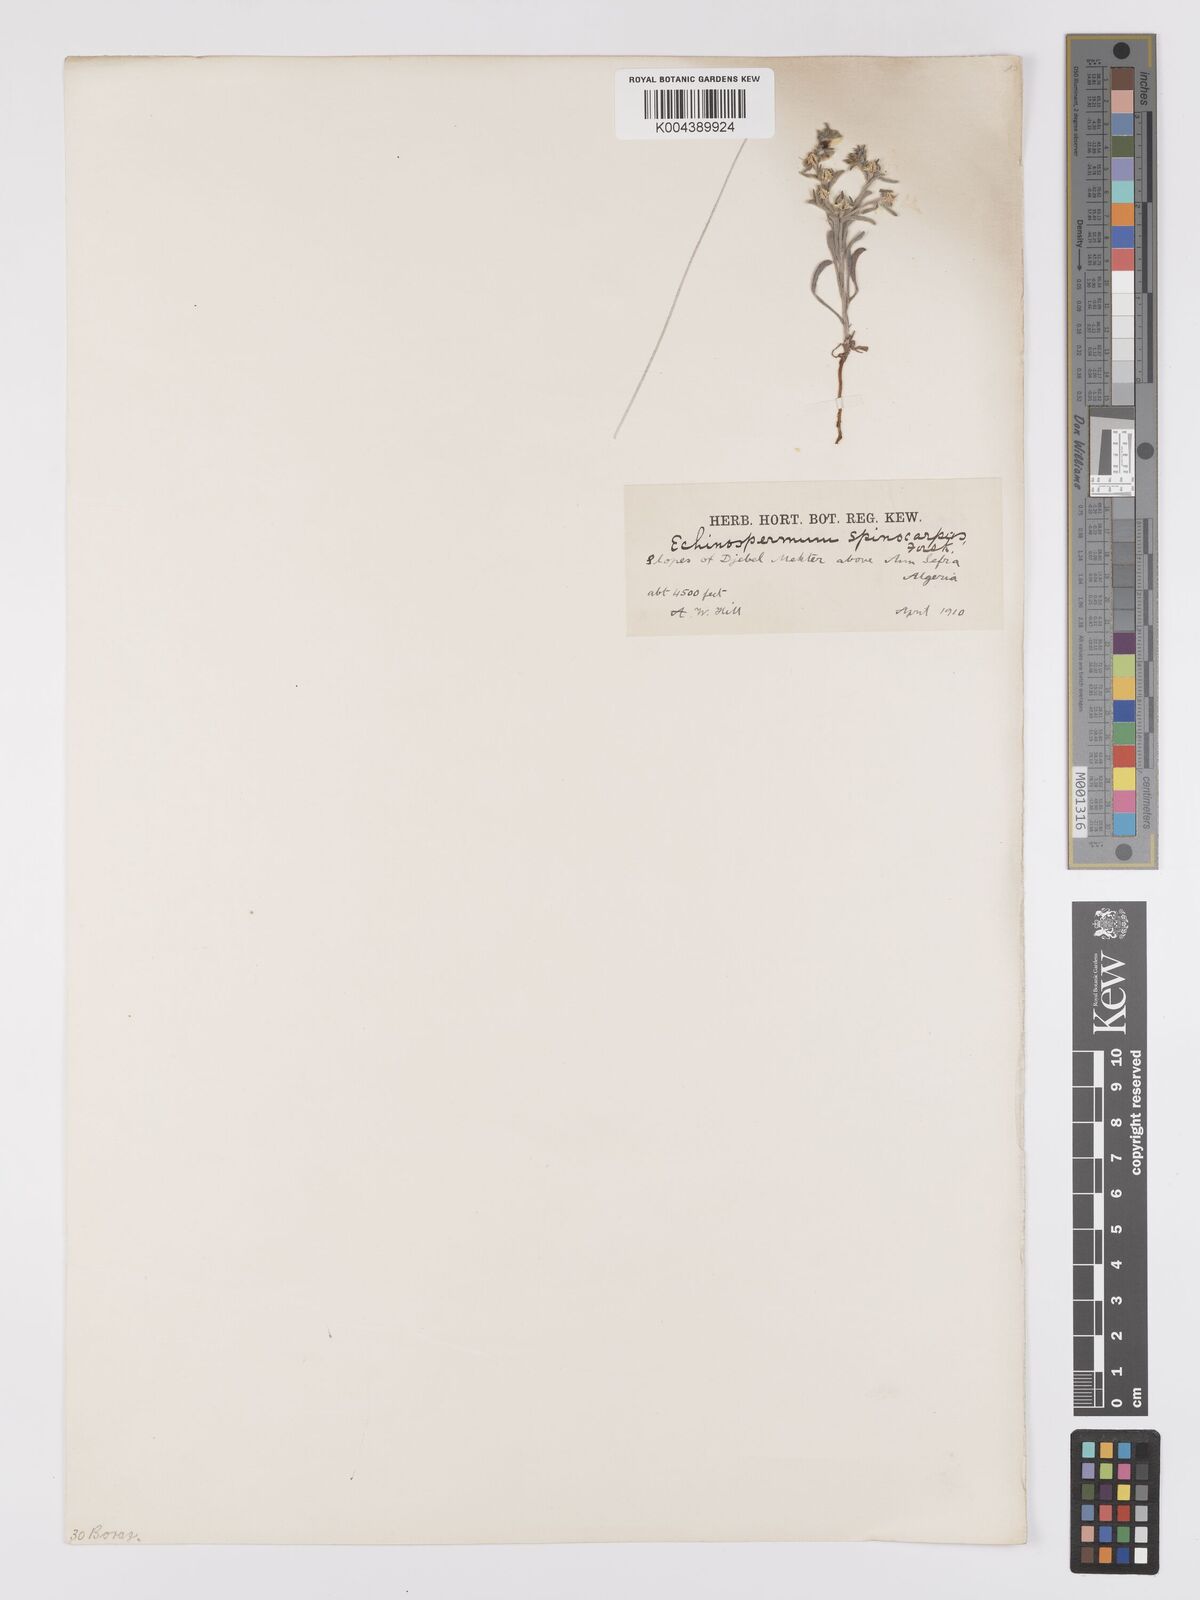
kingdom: Plantae
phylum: Tracheophyta
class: Magnoliopsida
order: Boraginales
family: Boraginaceae
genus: Lappula
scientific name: Lappula spinocarpos
